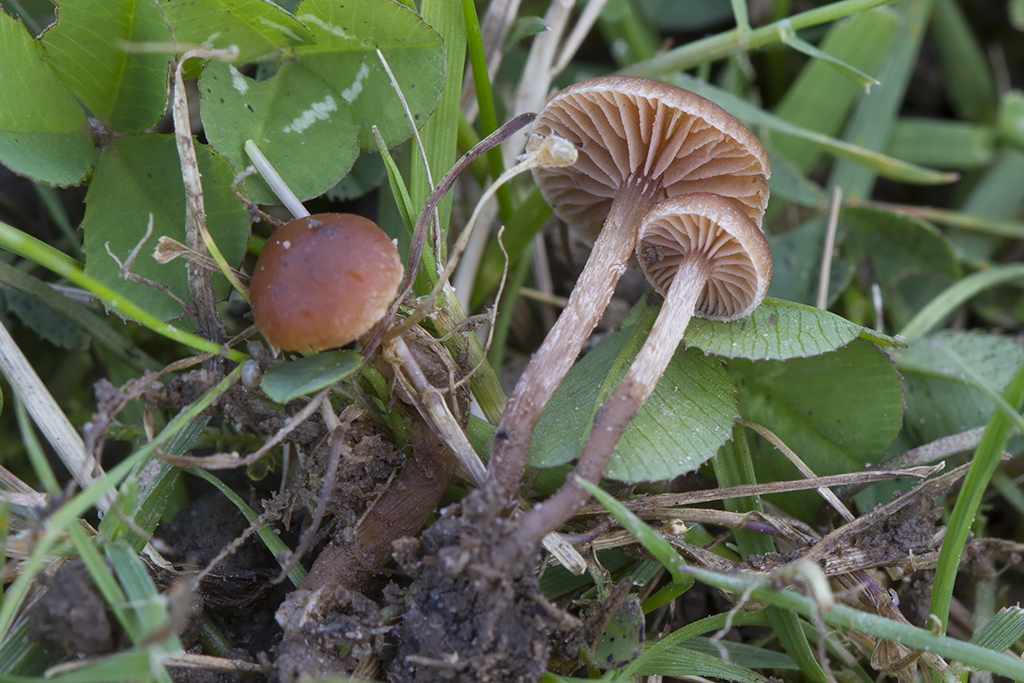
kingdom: Fungi
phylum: Basidiomycota
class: Agaricomycetes
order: Agaricales
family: Strophariaceae
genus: Deconica
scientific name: Deconica micropora
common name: småsporet stråhat
